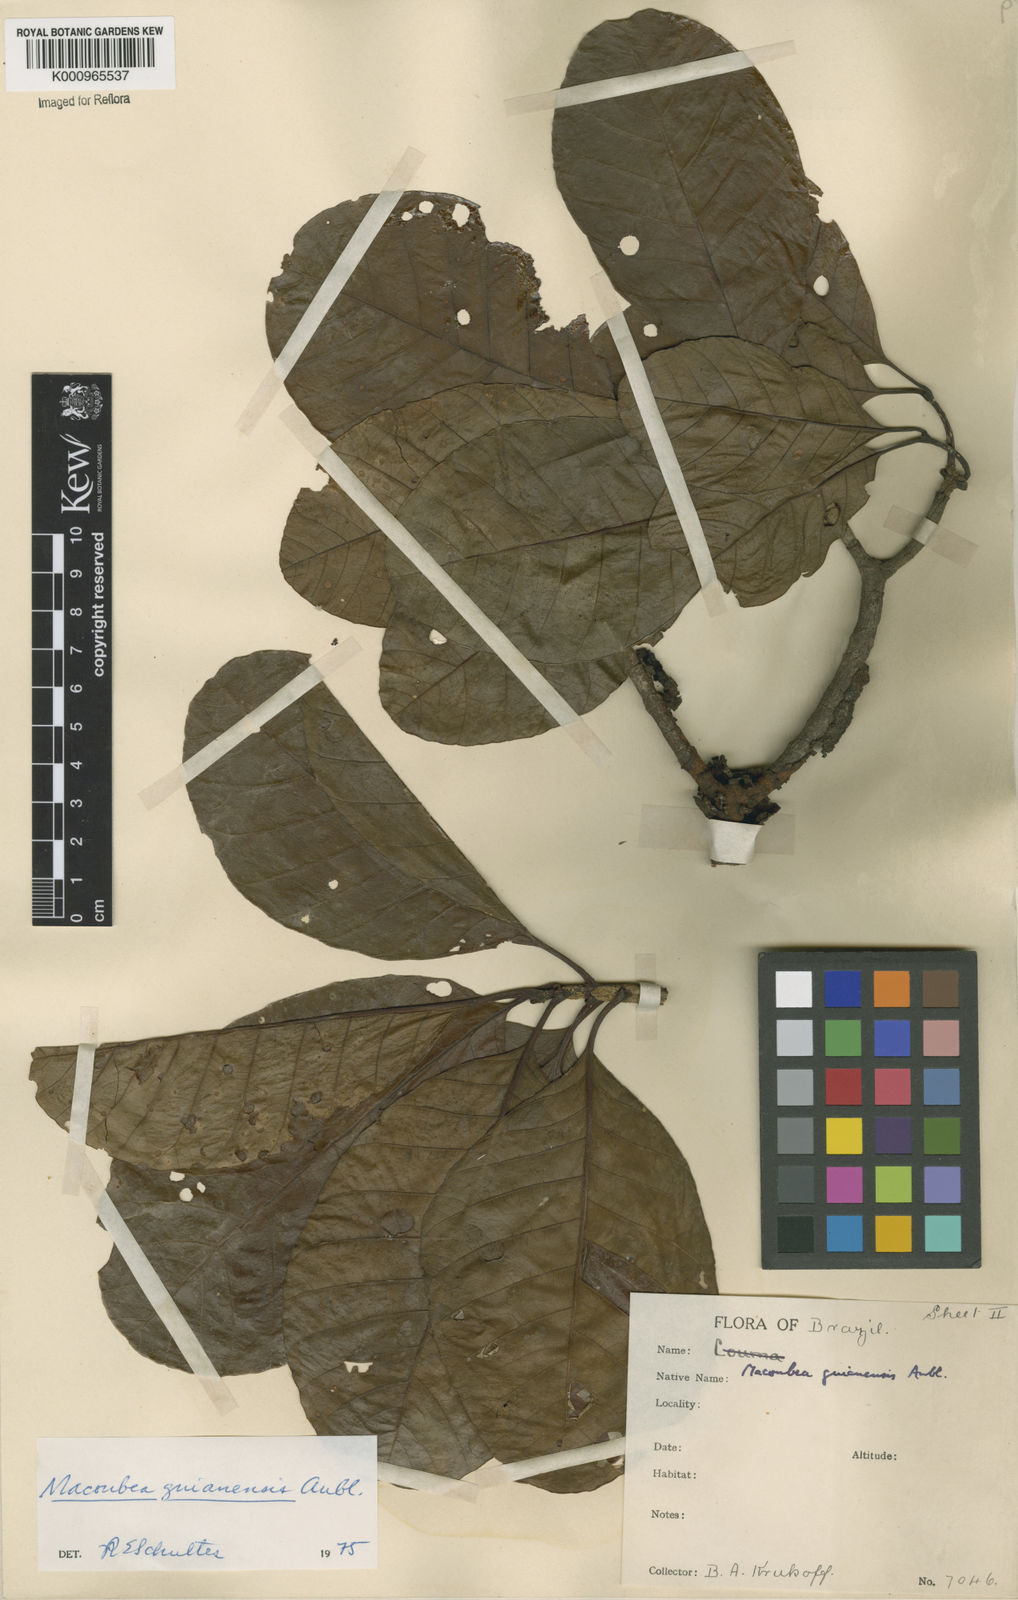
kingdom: Plantae
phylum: Tracheophyta
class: Magnoliopsida
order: Gentianales
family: Apocynaceae
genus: Macoubea
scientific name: Macoubea guianensis
